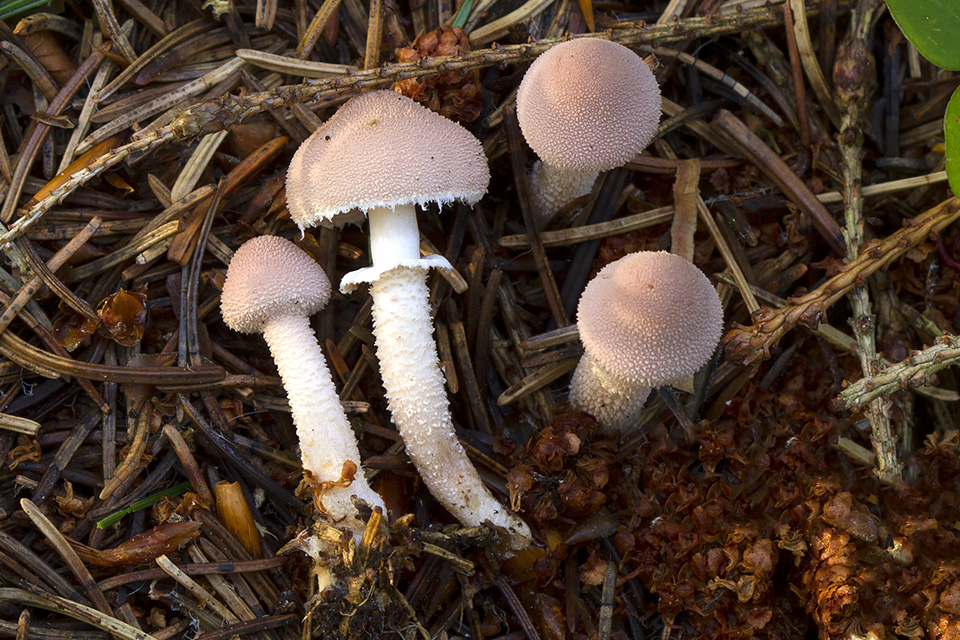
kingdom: Fungi
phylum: Basidiomycota
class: Agaricomycetes
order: Agaricales
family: Tricholomataceae
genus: Cystoderma
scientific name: Cystoderma carcharias
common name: rødgrå grynhat
